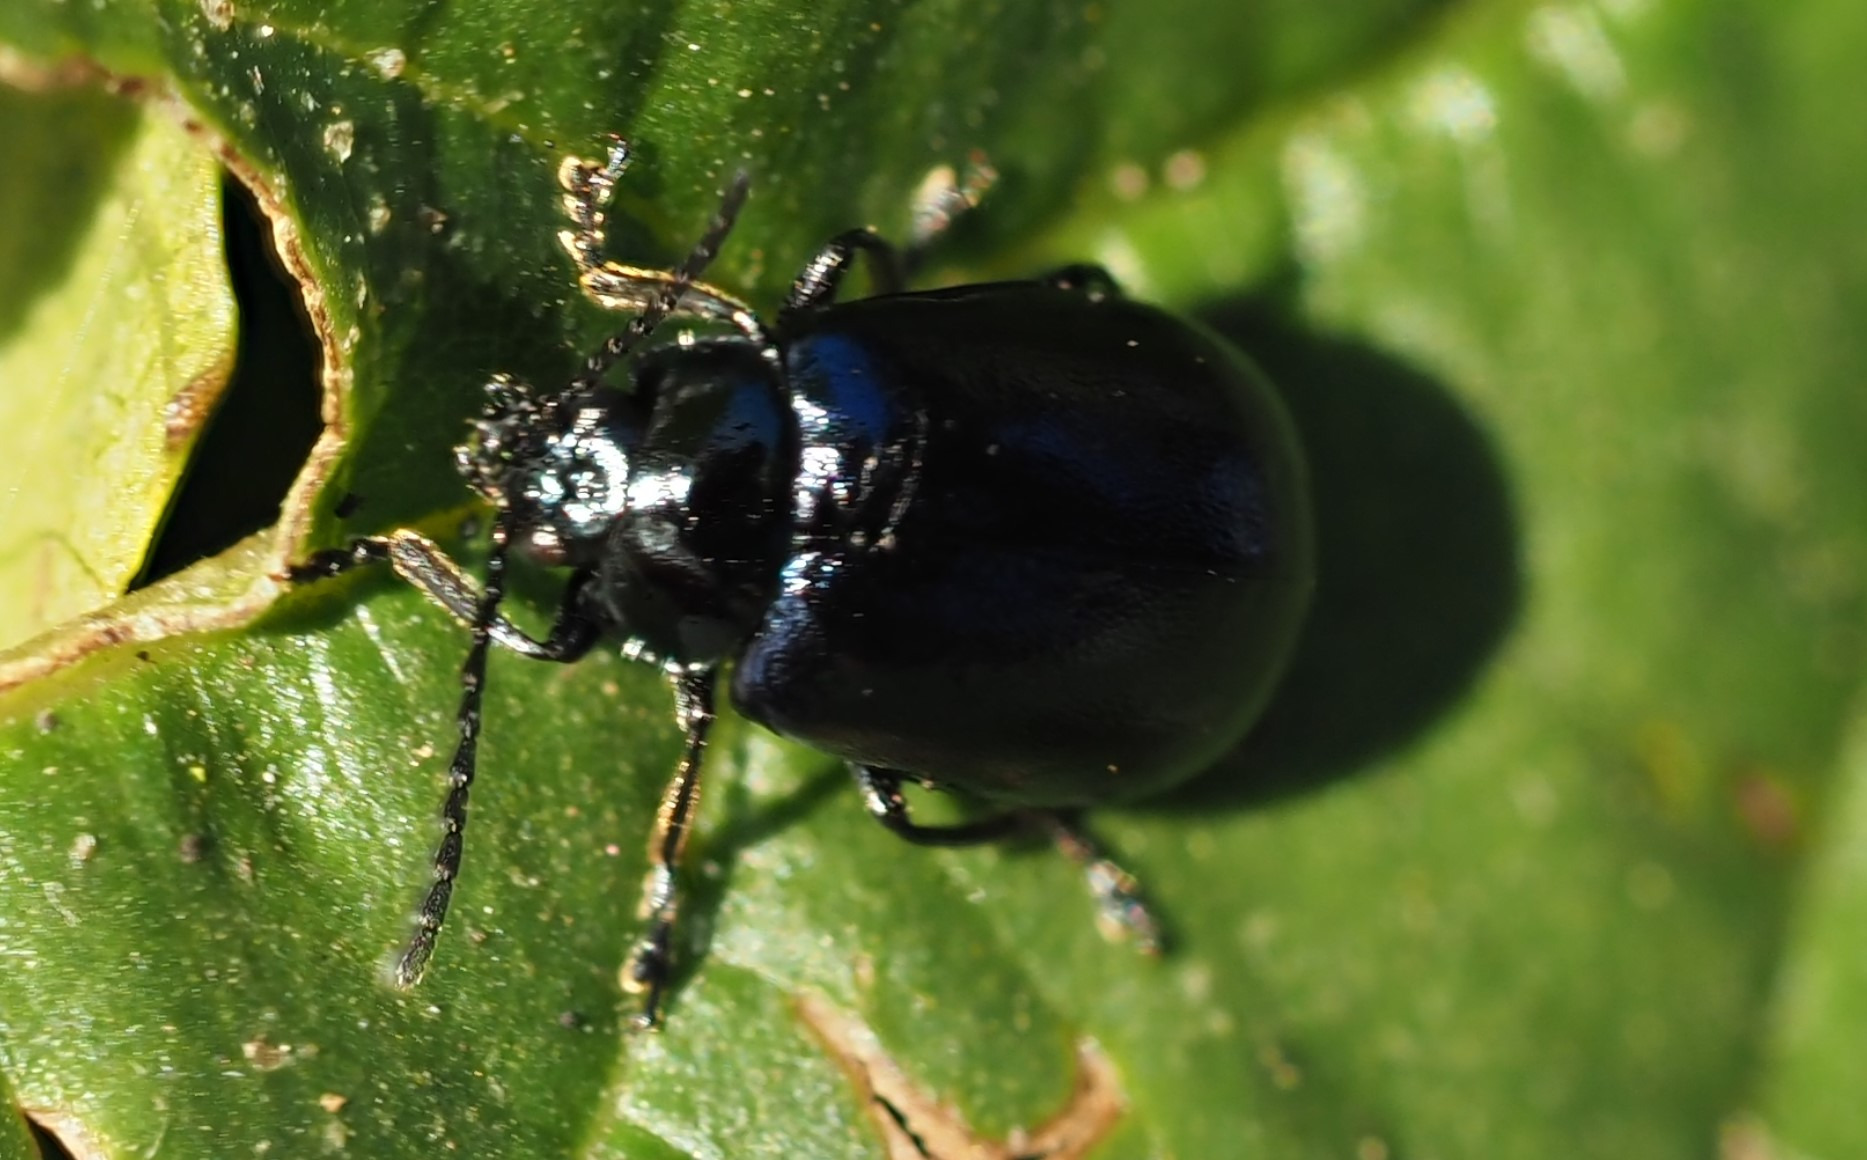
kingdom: Animalia
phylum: Arthropoda
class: Insecta
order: Coleoptera
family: Chrysomelidae
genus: Agelastica
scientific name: Agelastica alni
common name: Ellebladbille
